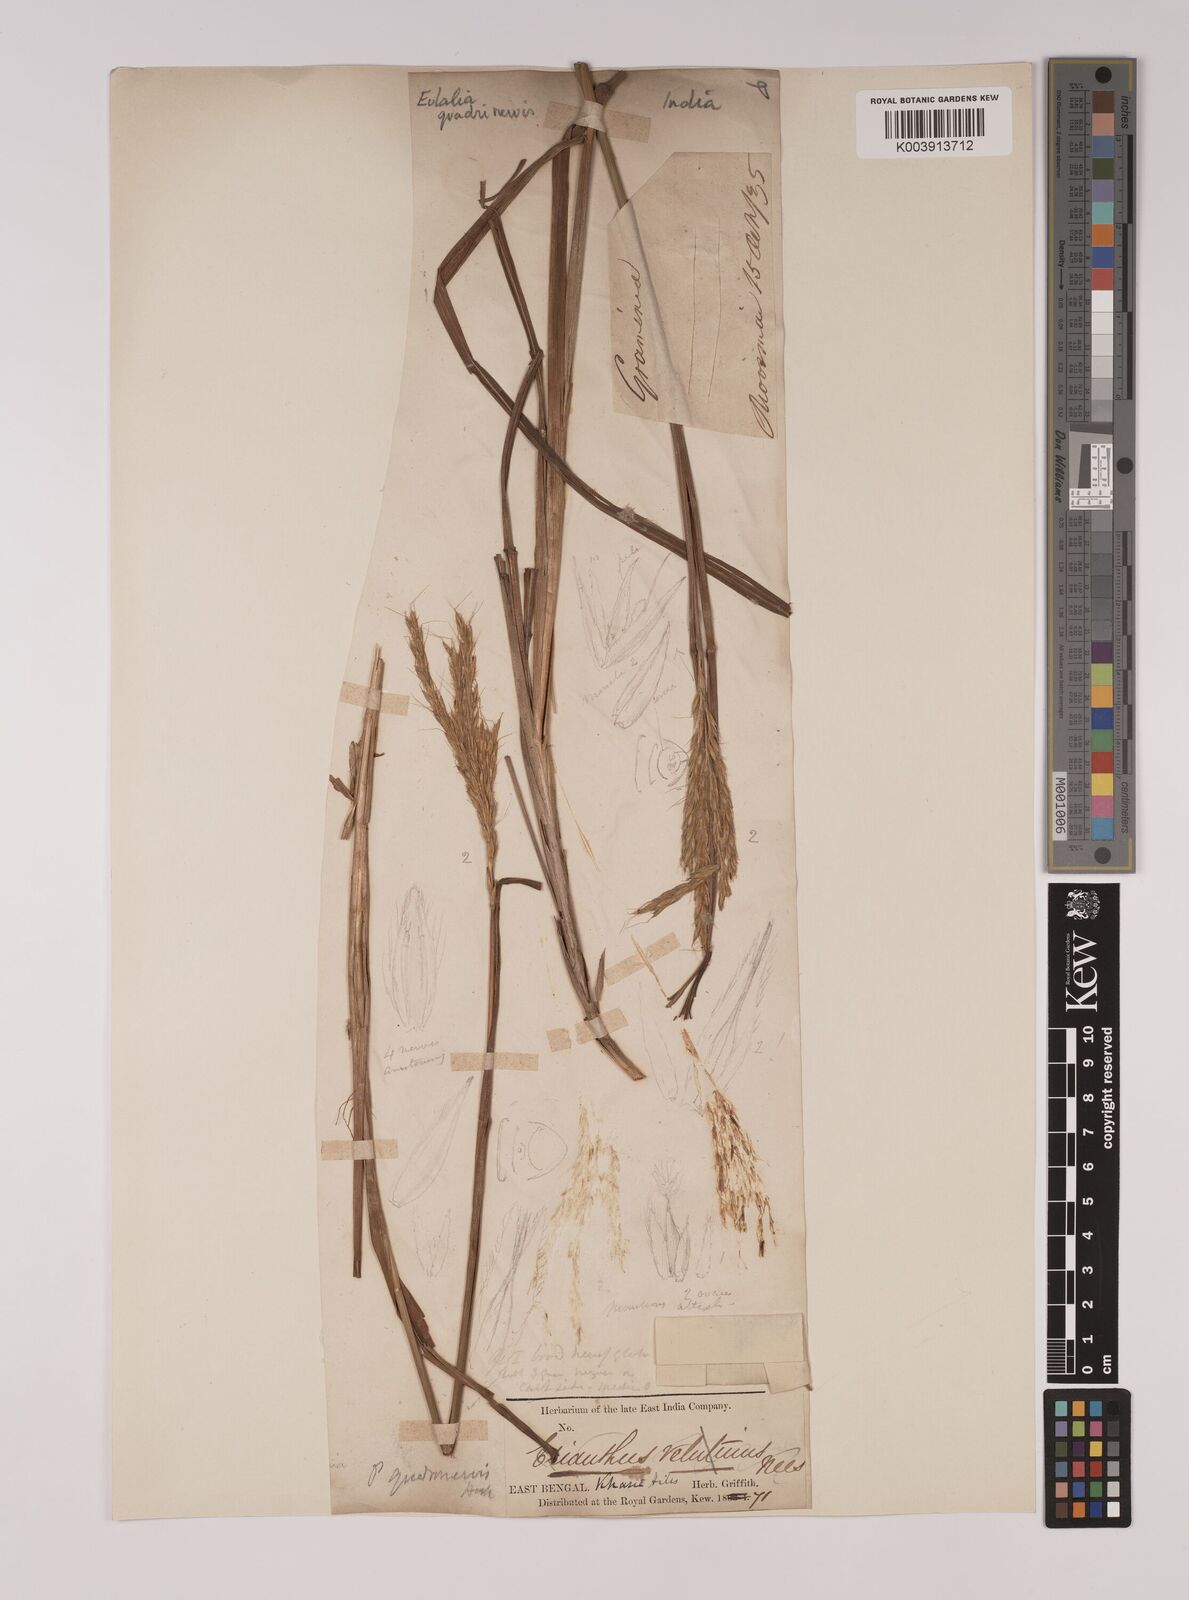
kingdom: Plantae
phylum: Tracheophyta
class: Liliopsida
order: Poales
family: Poaceae
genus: Eulalia
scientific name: Eulalia villosa
